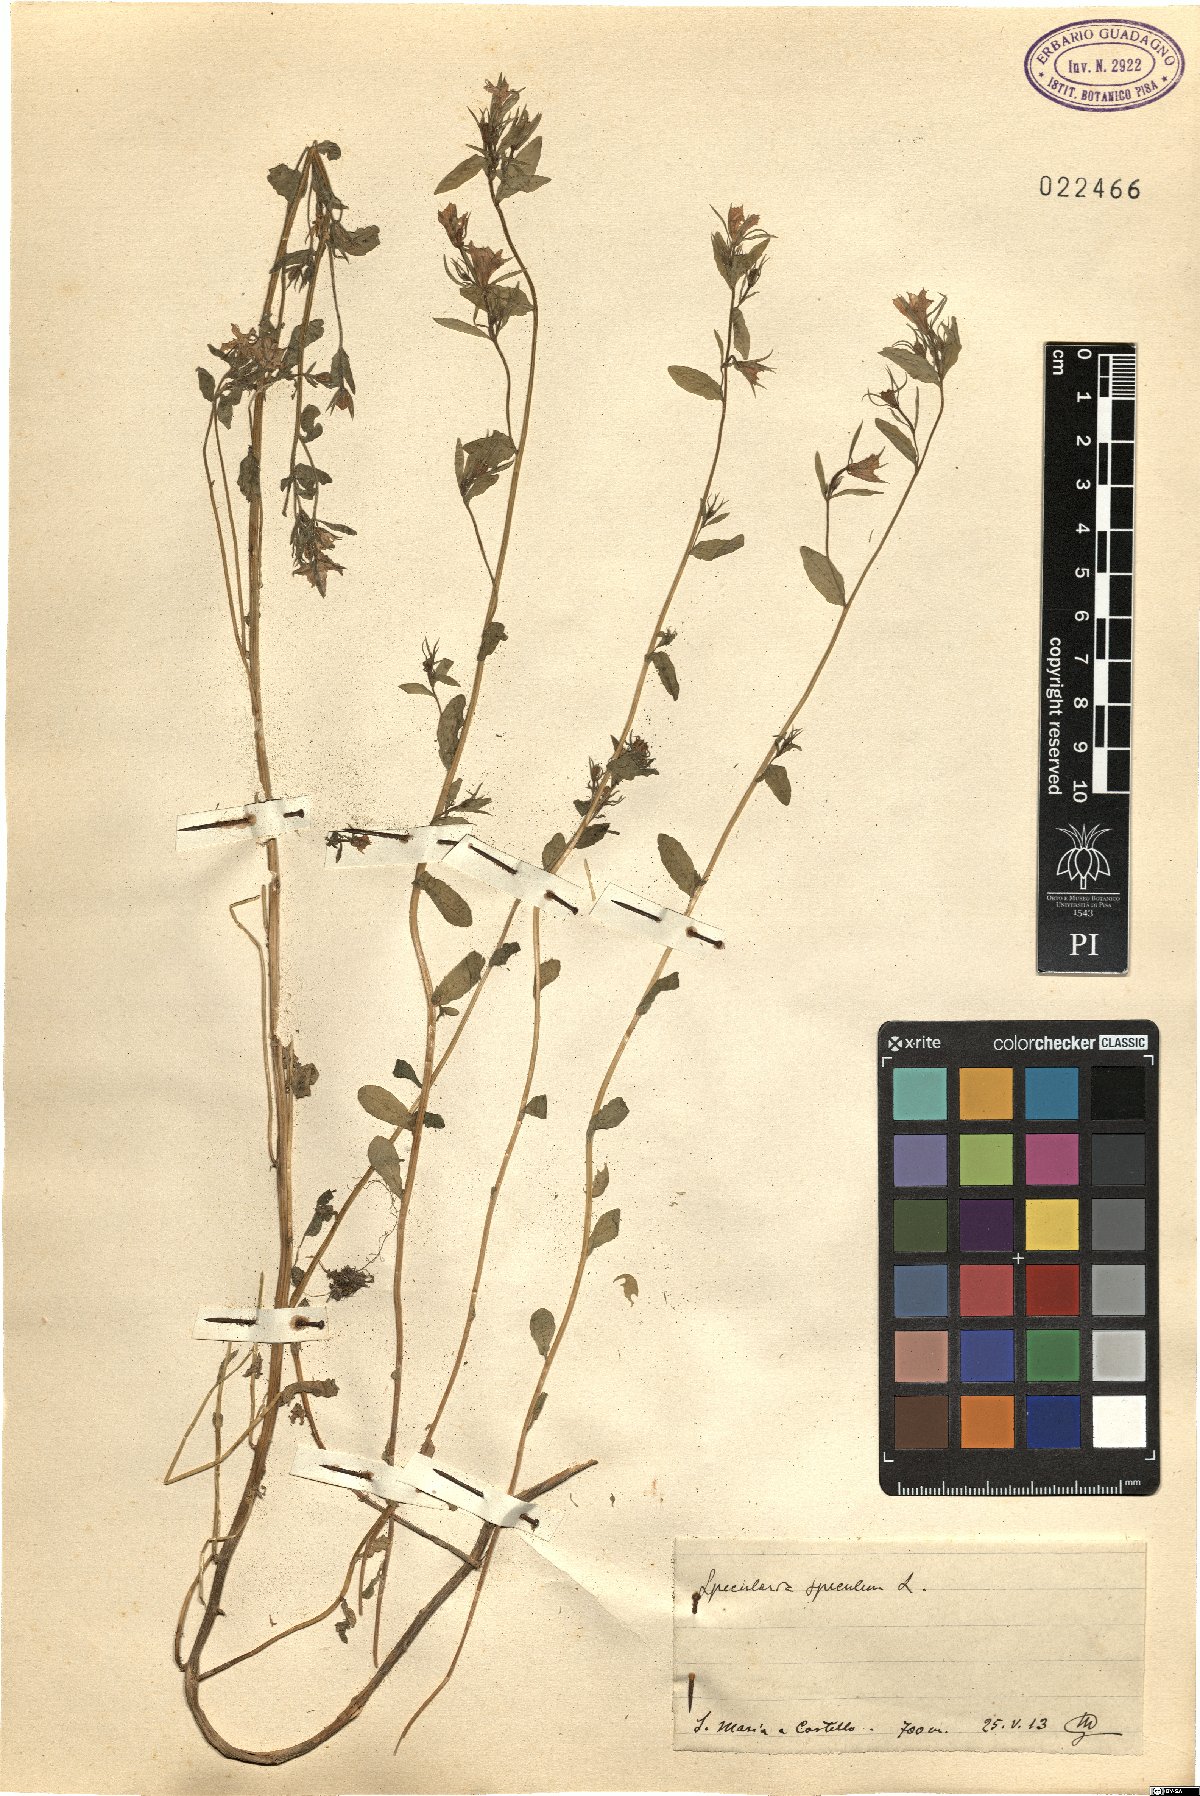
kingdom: Plantae
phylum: Tracheophyta
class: Magnoliopsida
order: Asterales
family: Campanulaceae
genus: Legousia
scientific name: Legousia speculum-veneris
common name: Large venus's-looking-glass
